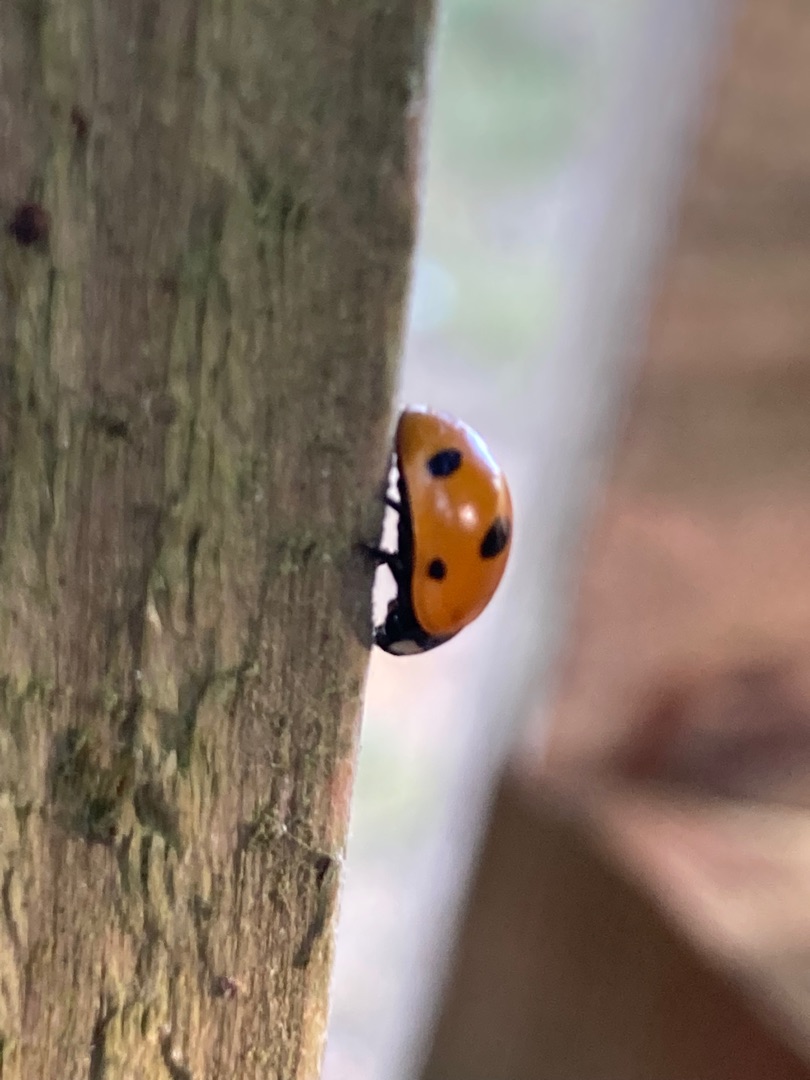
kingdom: Animalia
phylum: Arthropoda
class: Insecta
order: Coleoptera
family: Coccinellidae
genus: Coccinella
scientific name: Coccinella septempunctata
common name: Syvplettet mariehøne
